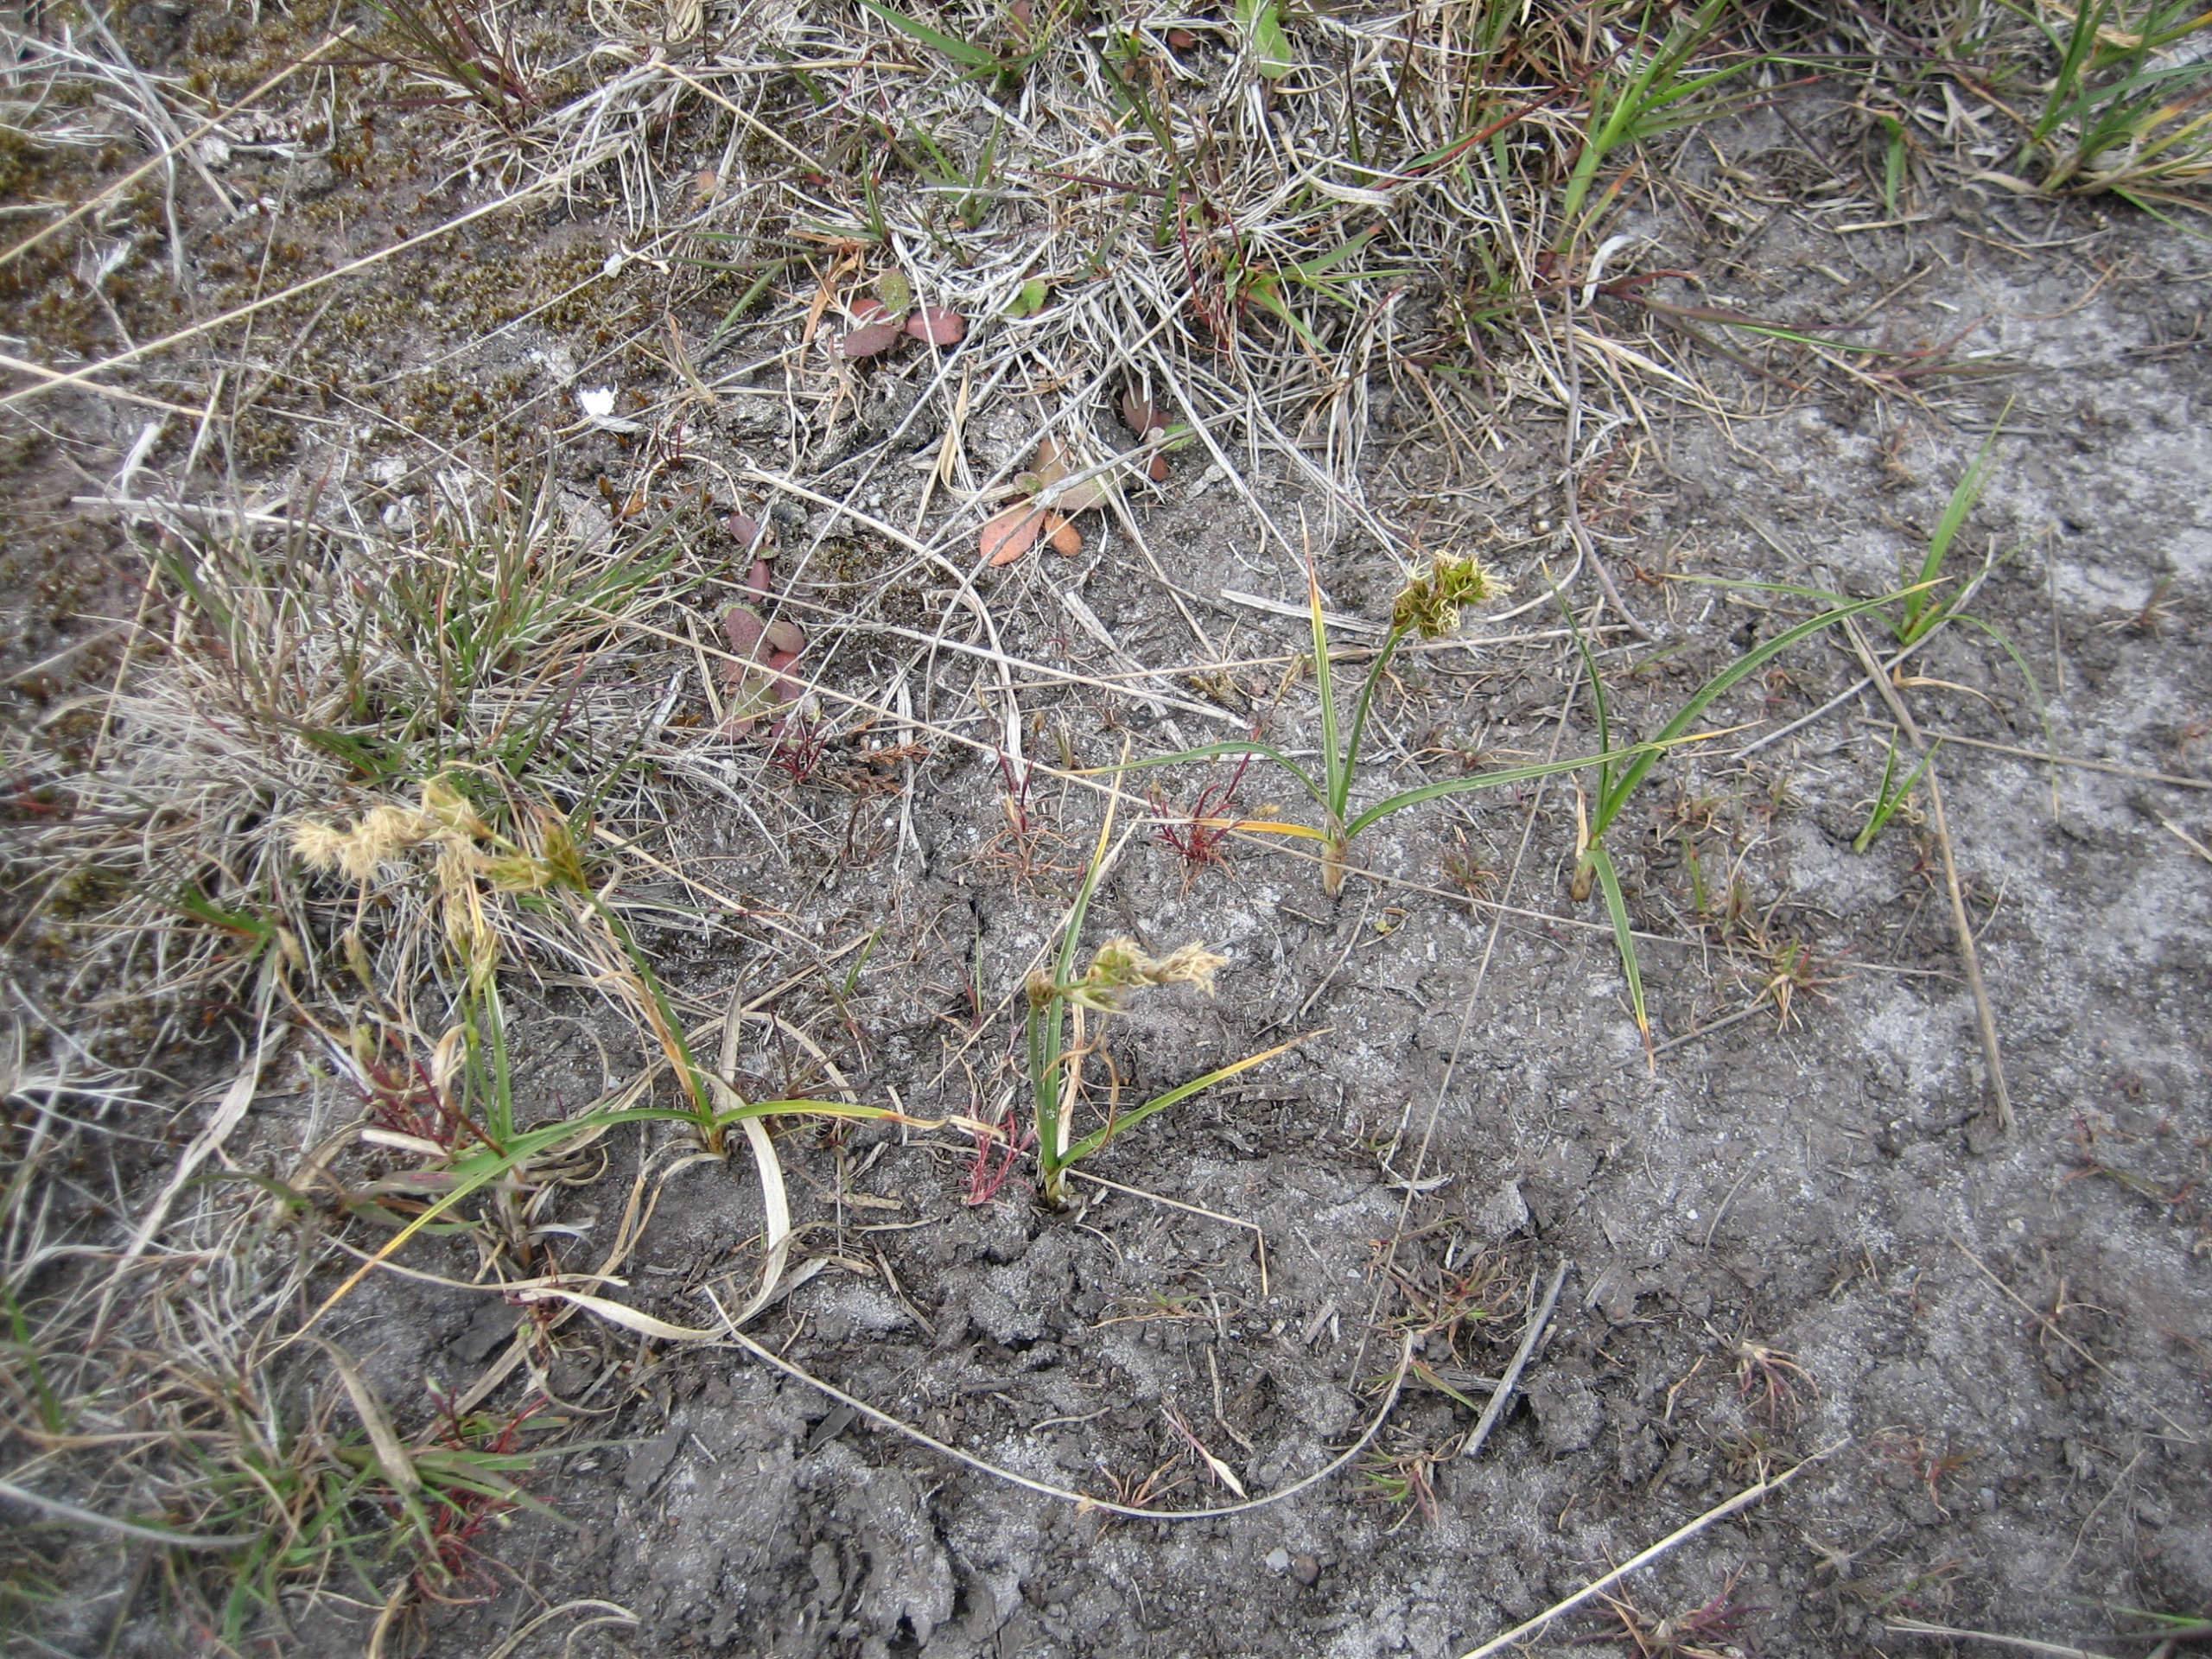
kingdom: Plantae
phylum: Tracheophyta
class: Liliopsida
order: Poales
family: Cyperaceae
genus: Carex
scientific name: Carex arenaria
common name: Sand-star
